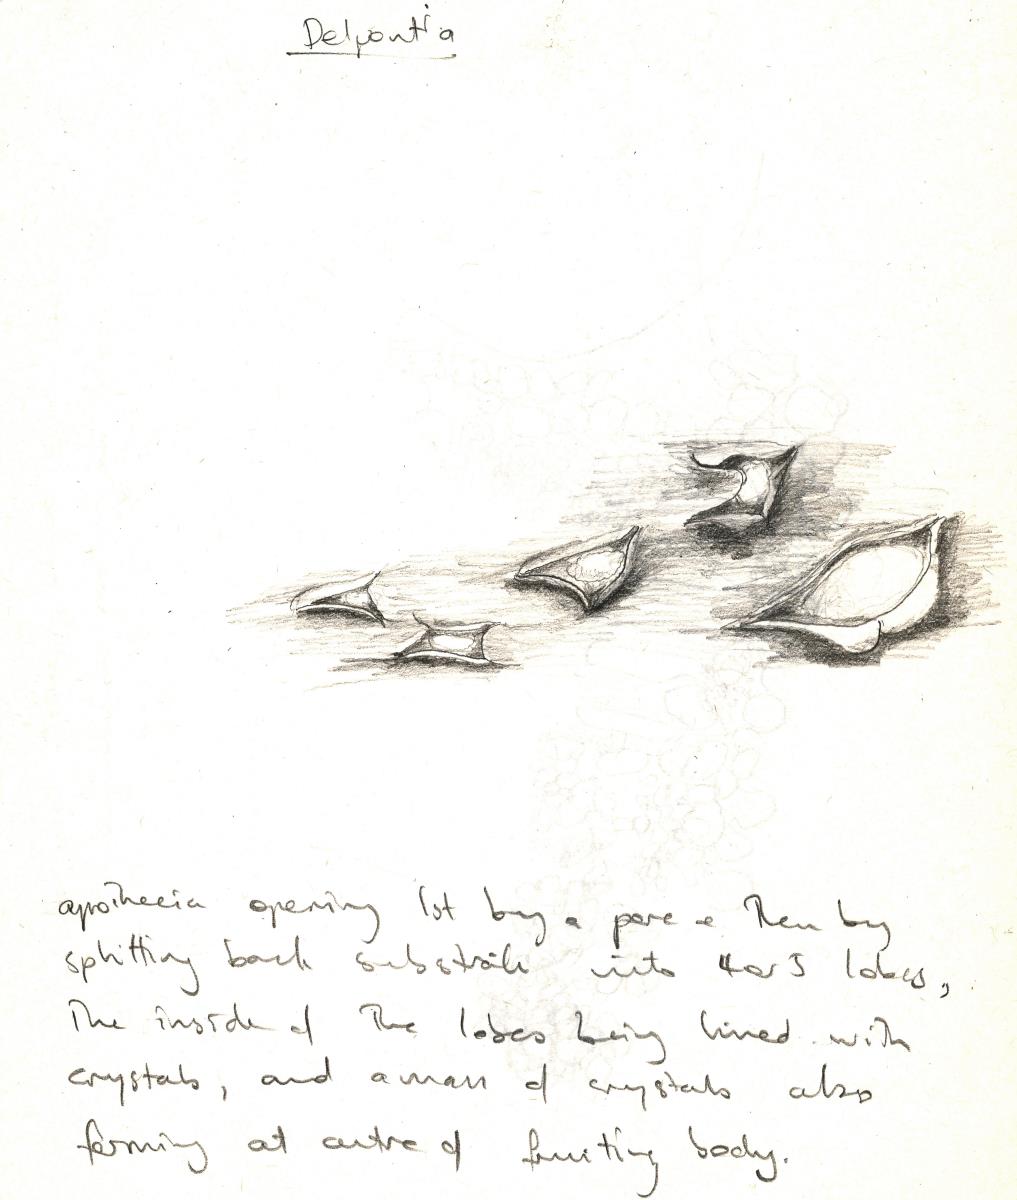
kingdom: Fungi
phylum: Ascomycota
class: Lecanoromycetes
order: Ostropales
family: Stictidaceae
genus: Delpontia
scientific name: Delpontia
